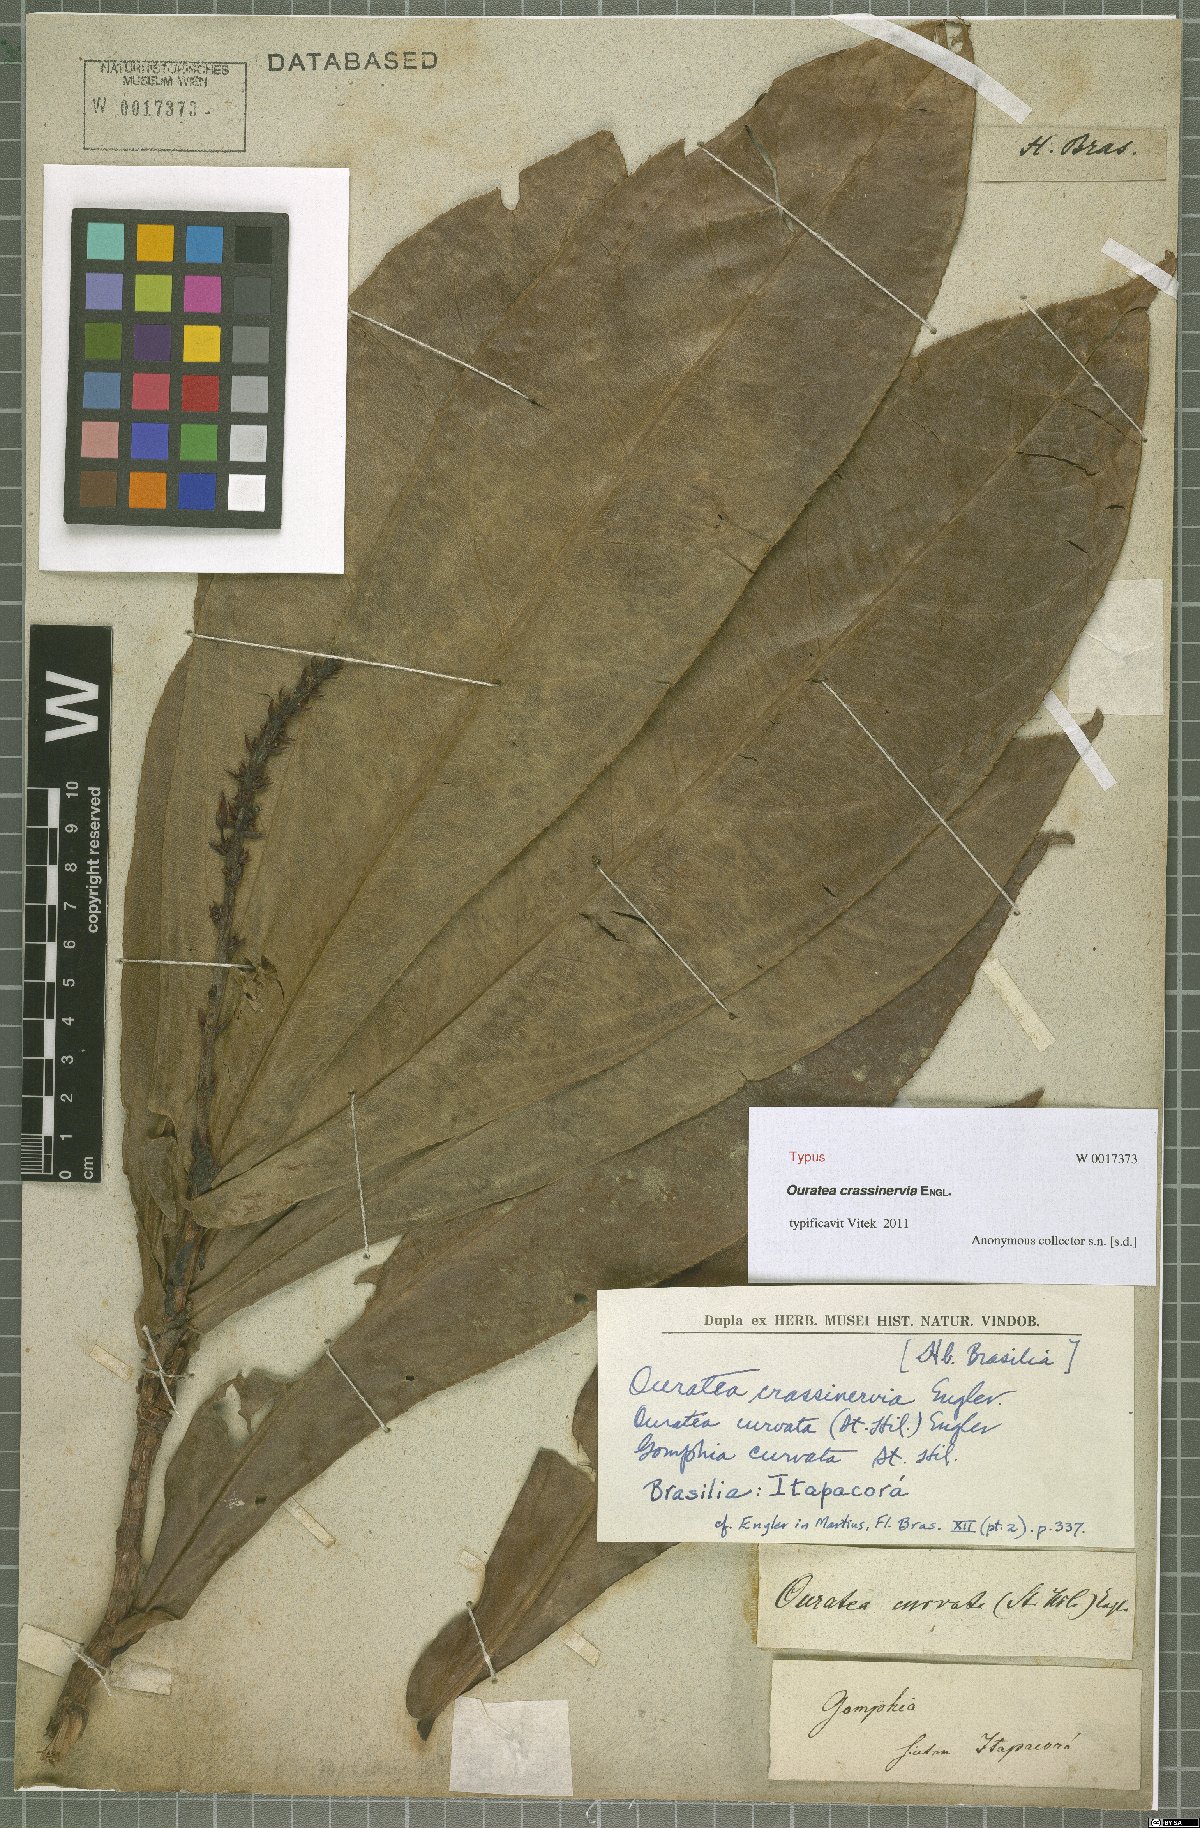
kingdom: Plantae
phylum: Tracheophyta
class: Magnoliopsida
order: Malpighiales
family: Ochnaceae
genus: Ouratea
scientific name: Ouratea crassinervia
